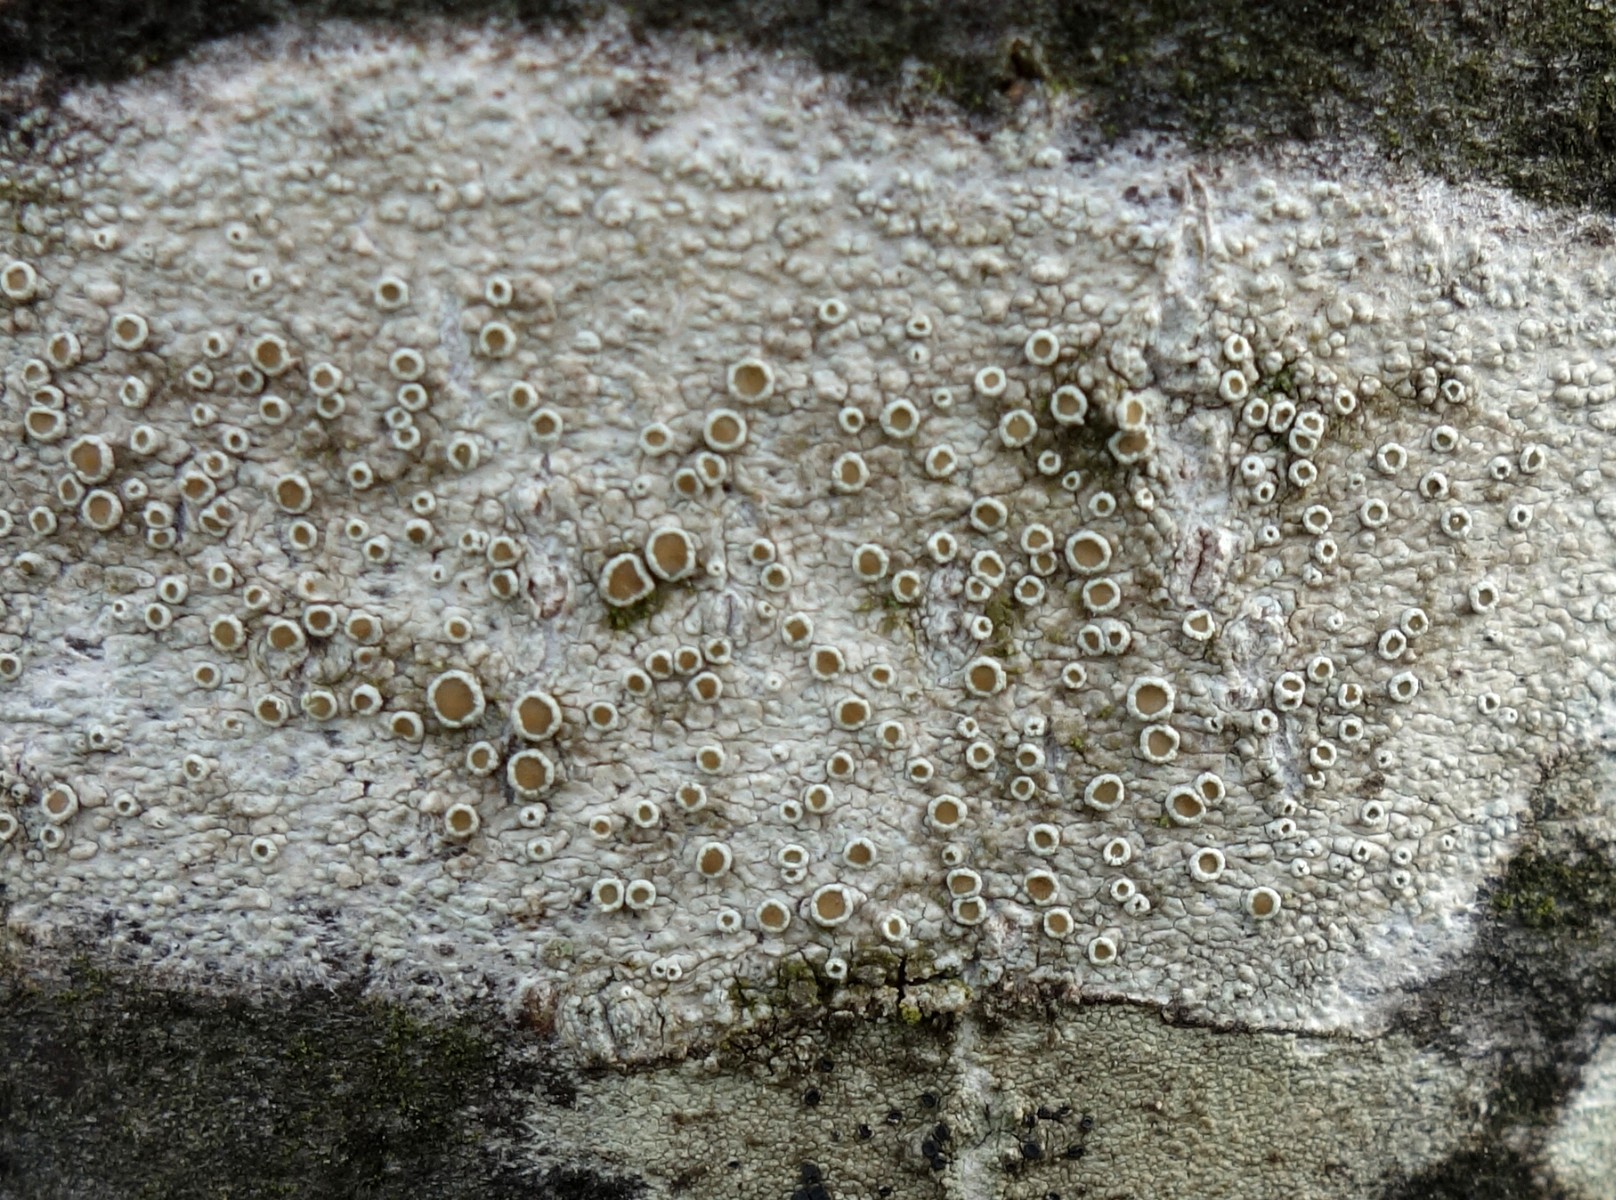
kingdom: Fungi
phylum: Ascomycota
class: Lecanoromycetes
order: Lecanorales
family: Lecanoraceae
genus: Lecanora
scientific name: Lecanora chlarotera
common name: brun kantskivelav
